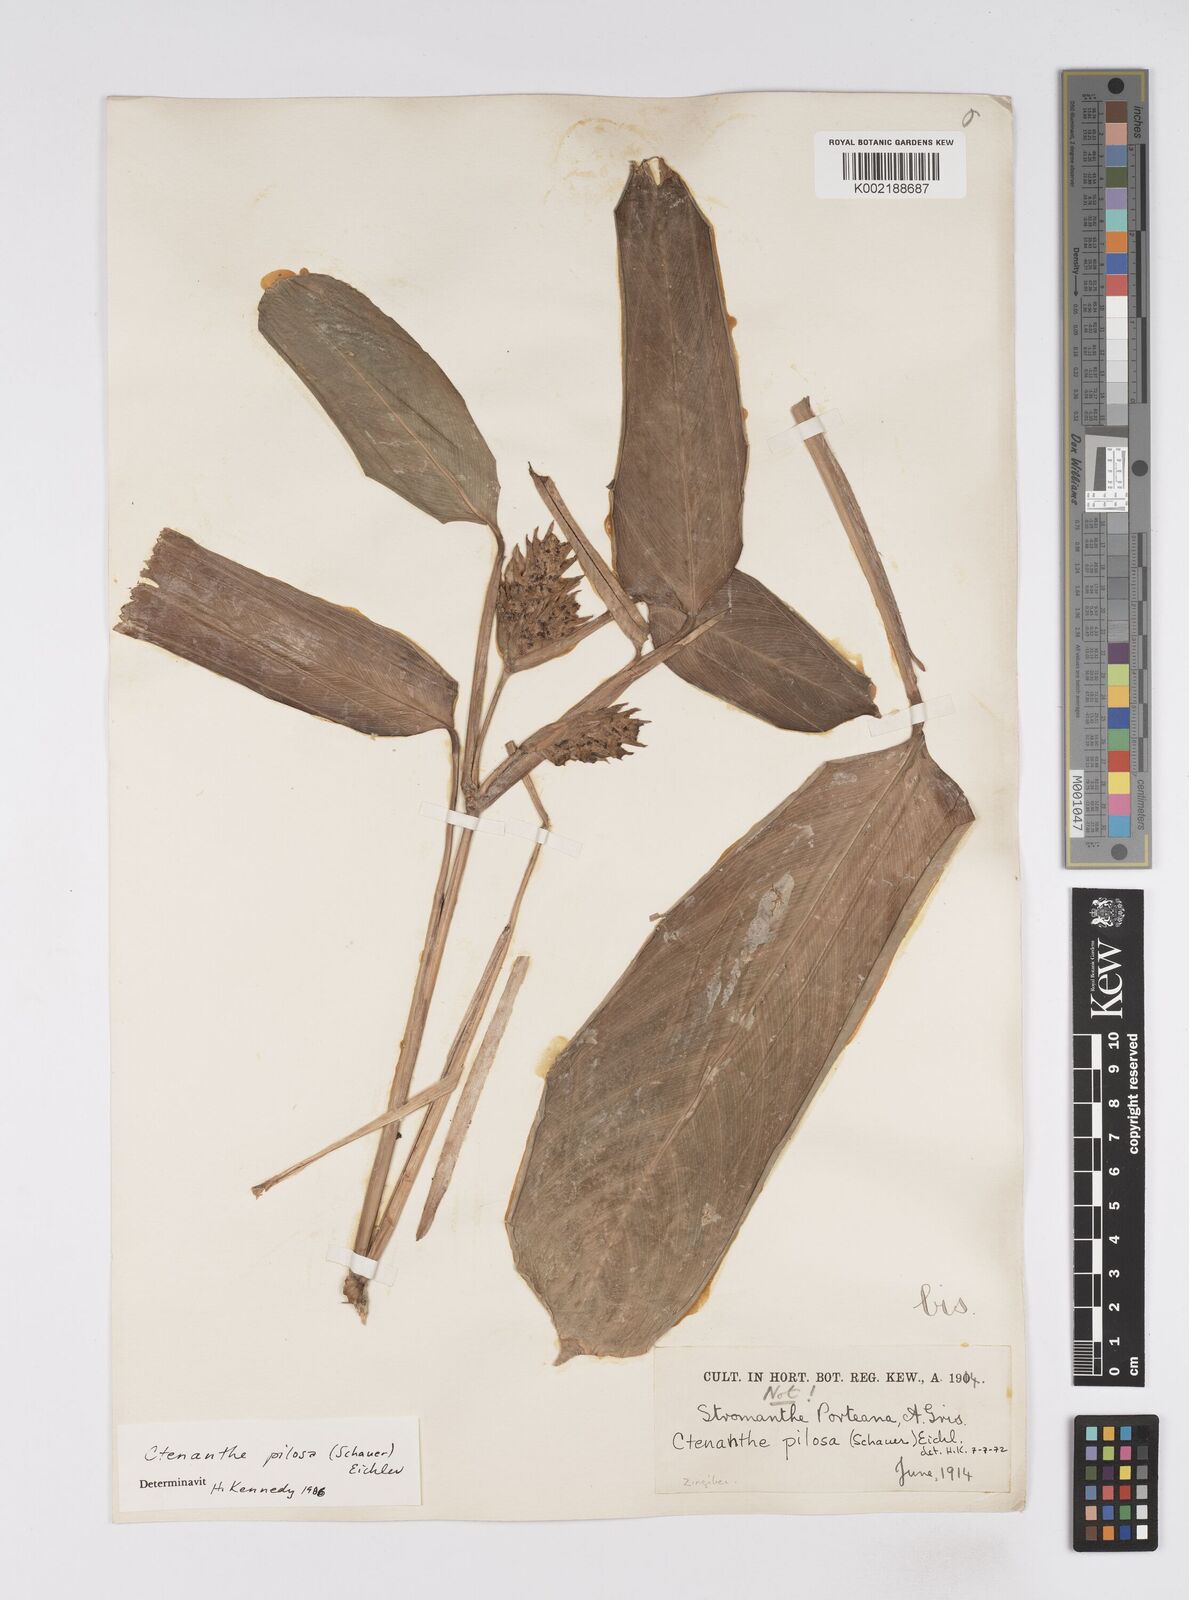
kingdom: Plantae
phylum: Tracheophyta
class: Liliopsida
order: Zingiberales
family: Marantaceae
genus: Ctenanthe
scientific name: Ctenanthe marantifolia
